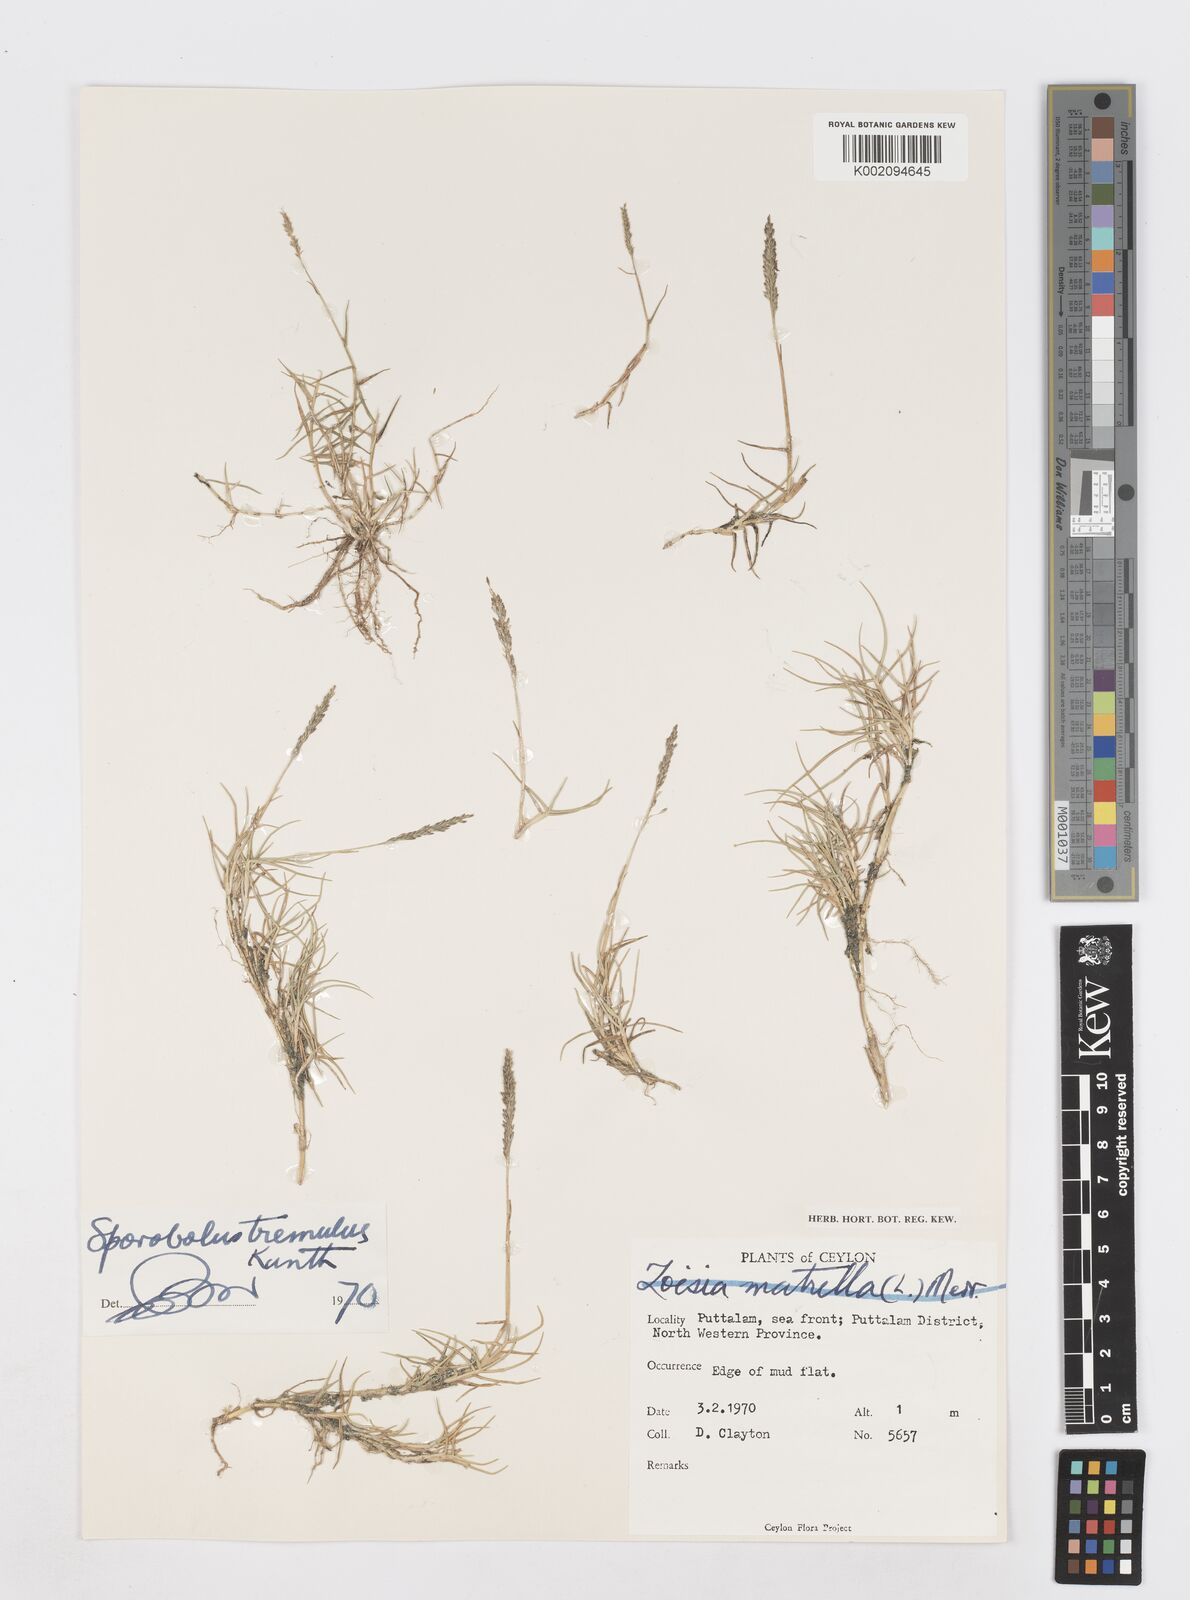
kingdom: Plantae
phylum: Tracheophyta
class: Liliopsida
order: Poales
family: Poaceae
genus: Sporobolus
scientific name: Sporobolus virginicus
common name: Beach dropseed
